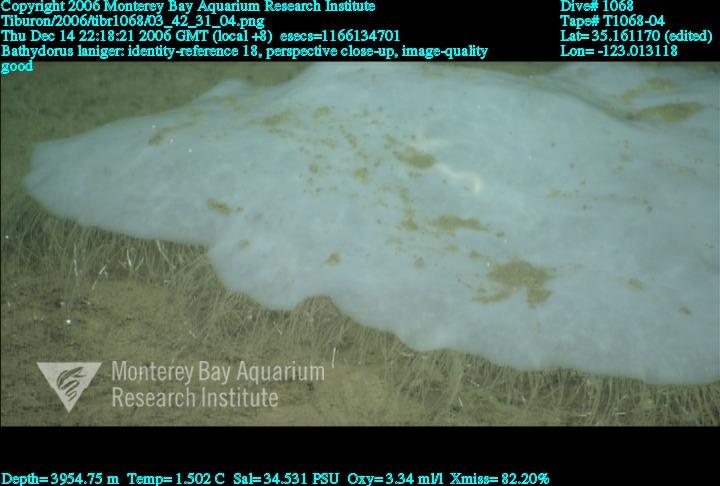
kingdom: Animalia
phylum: Porifera
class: Hexactinellida
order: Lyssacinosida
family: Rossellidae
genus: Bathydorus
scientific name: Bathydorus laniger
